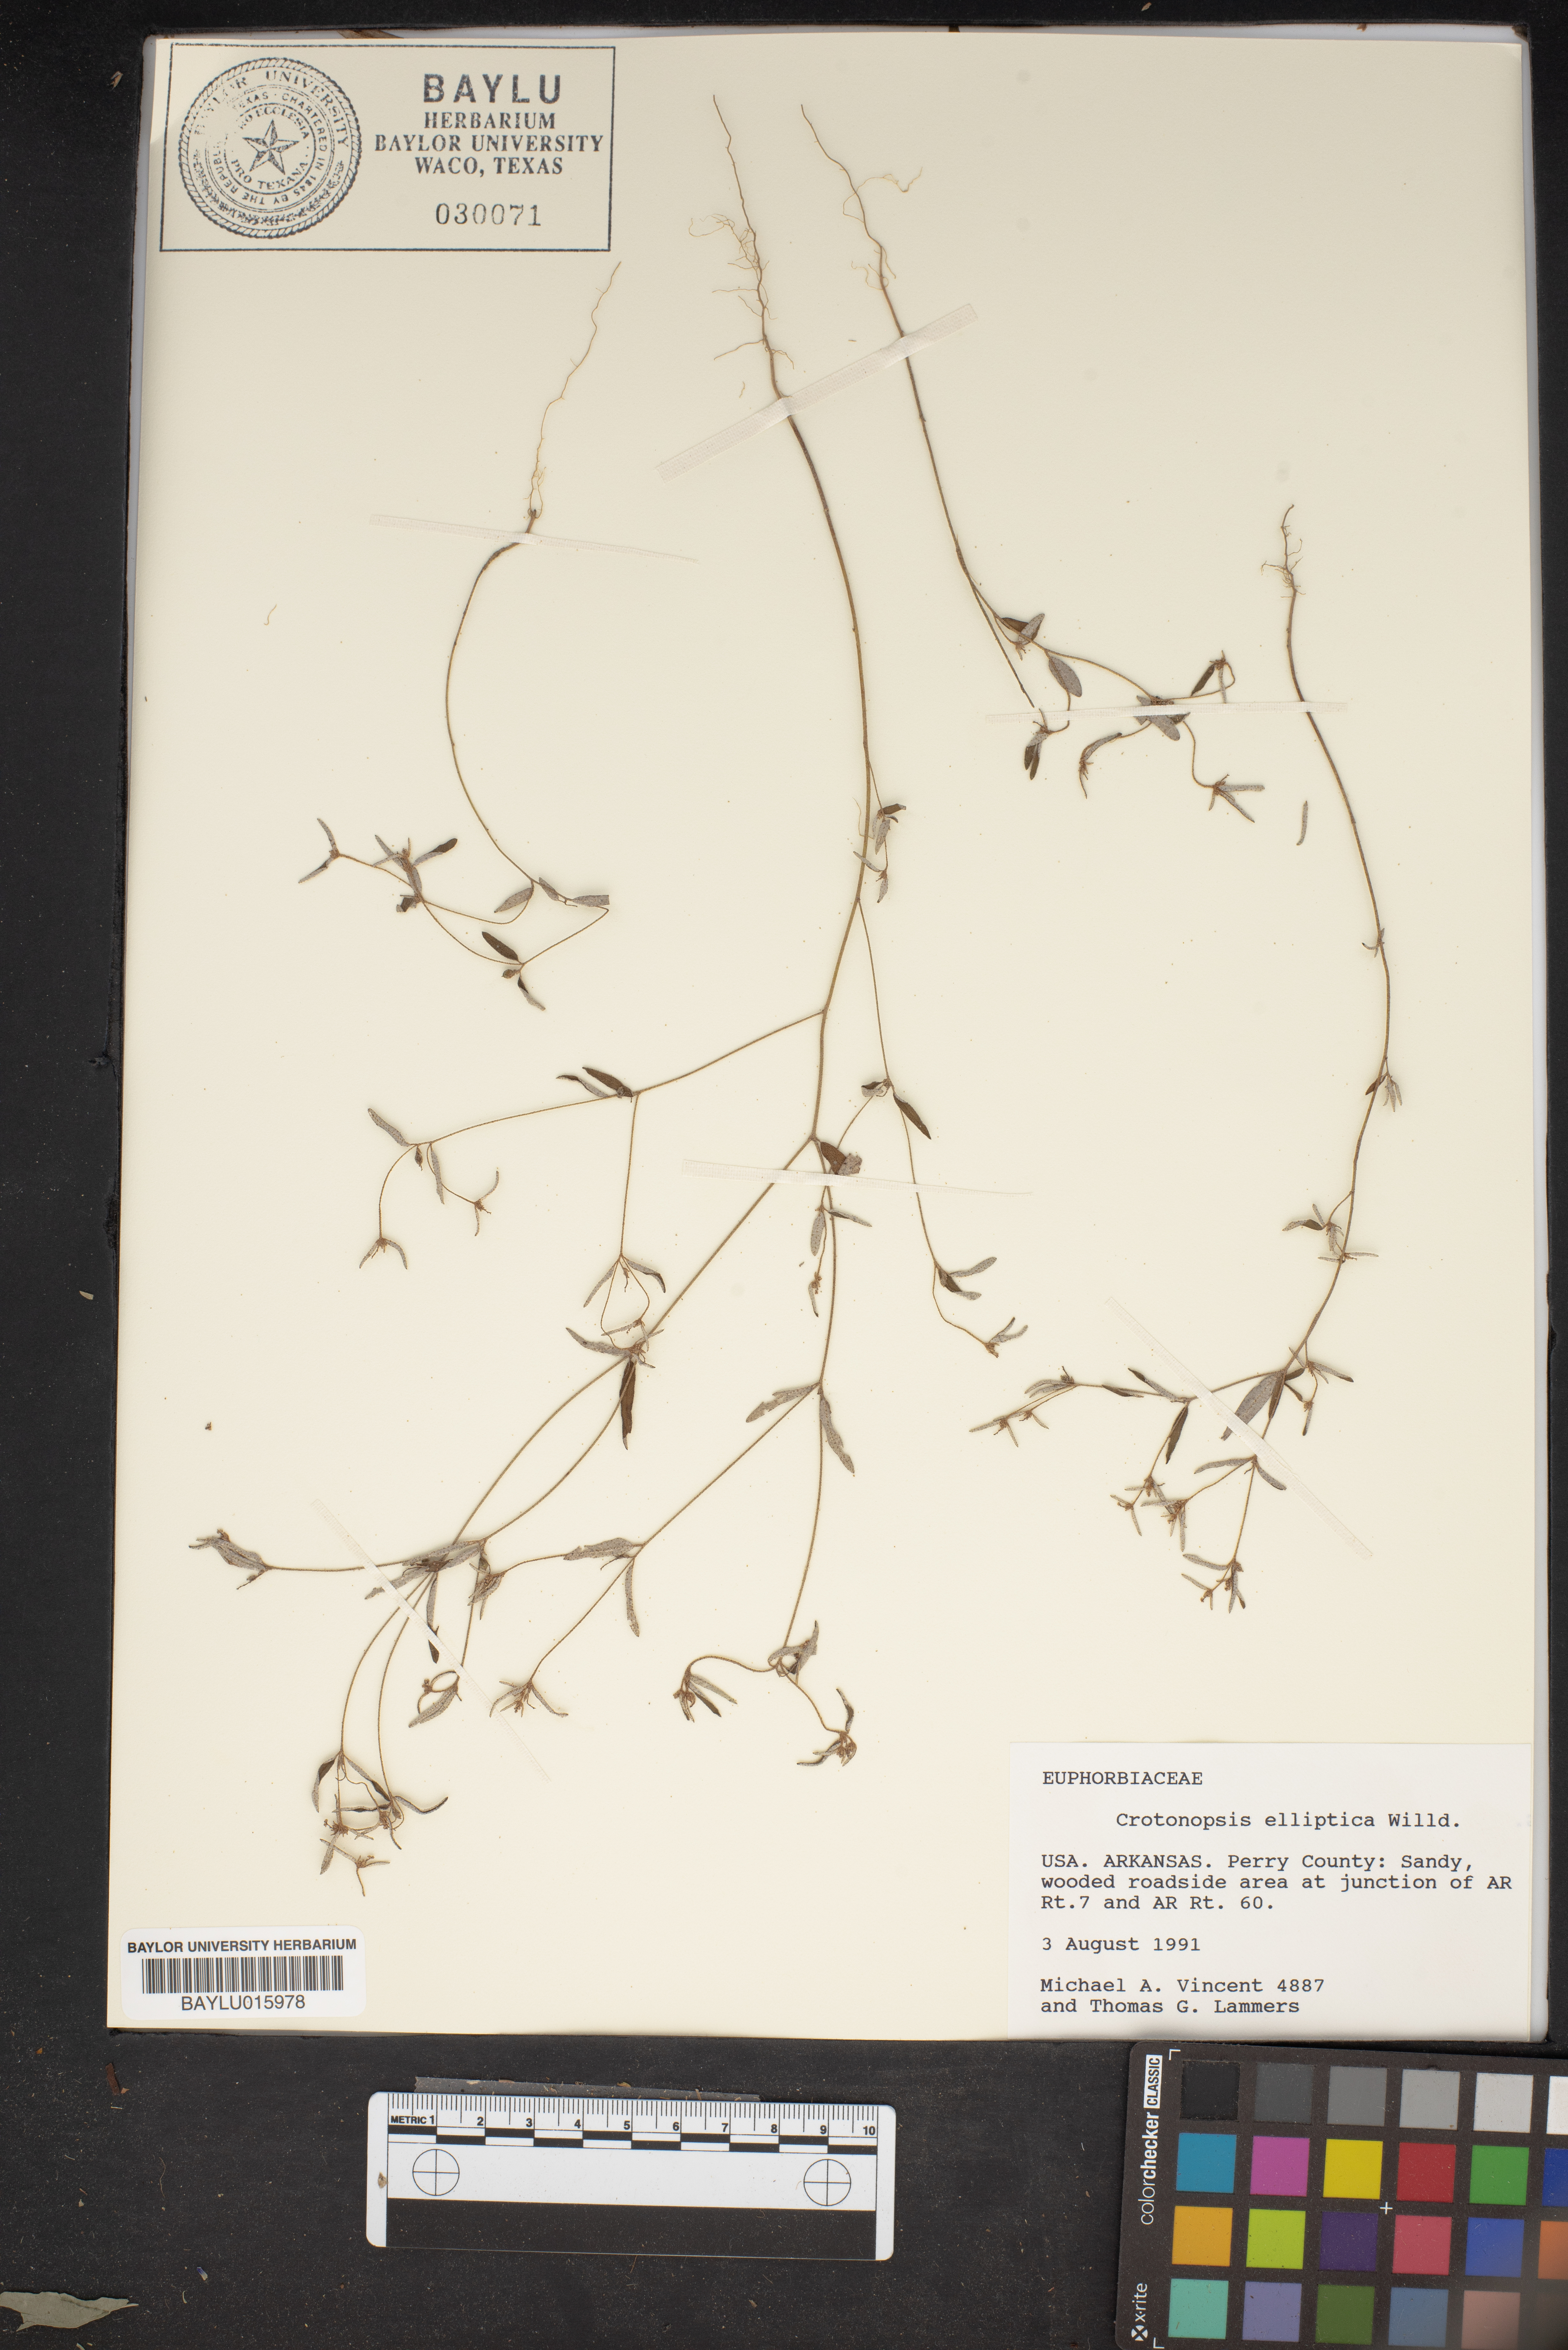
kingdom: Plantae
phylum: Tracheophyta
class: Magnoliopsida
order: Malpighiales
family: Euphorbiaceae
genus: Croton
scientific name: Croton michauxii
